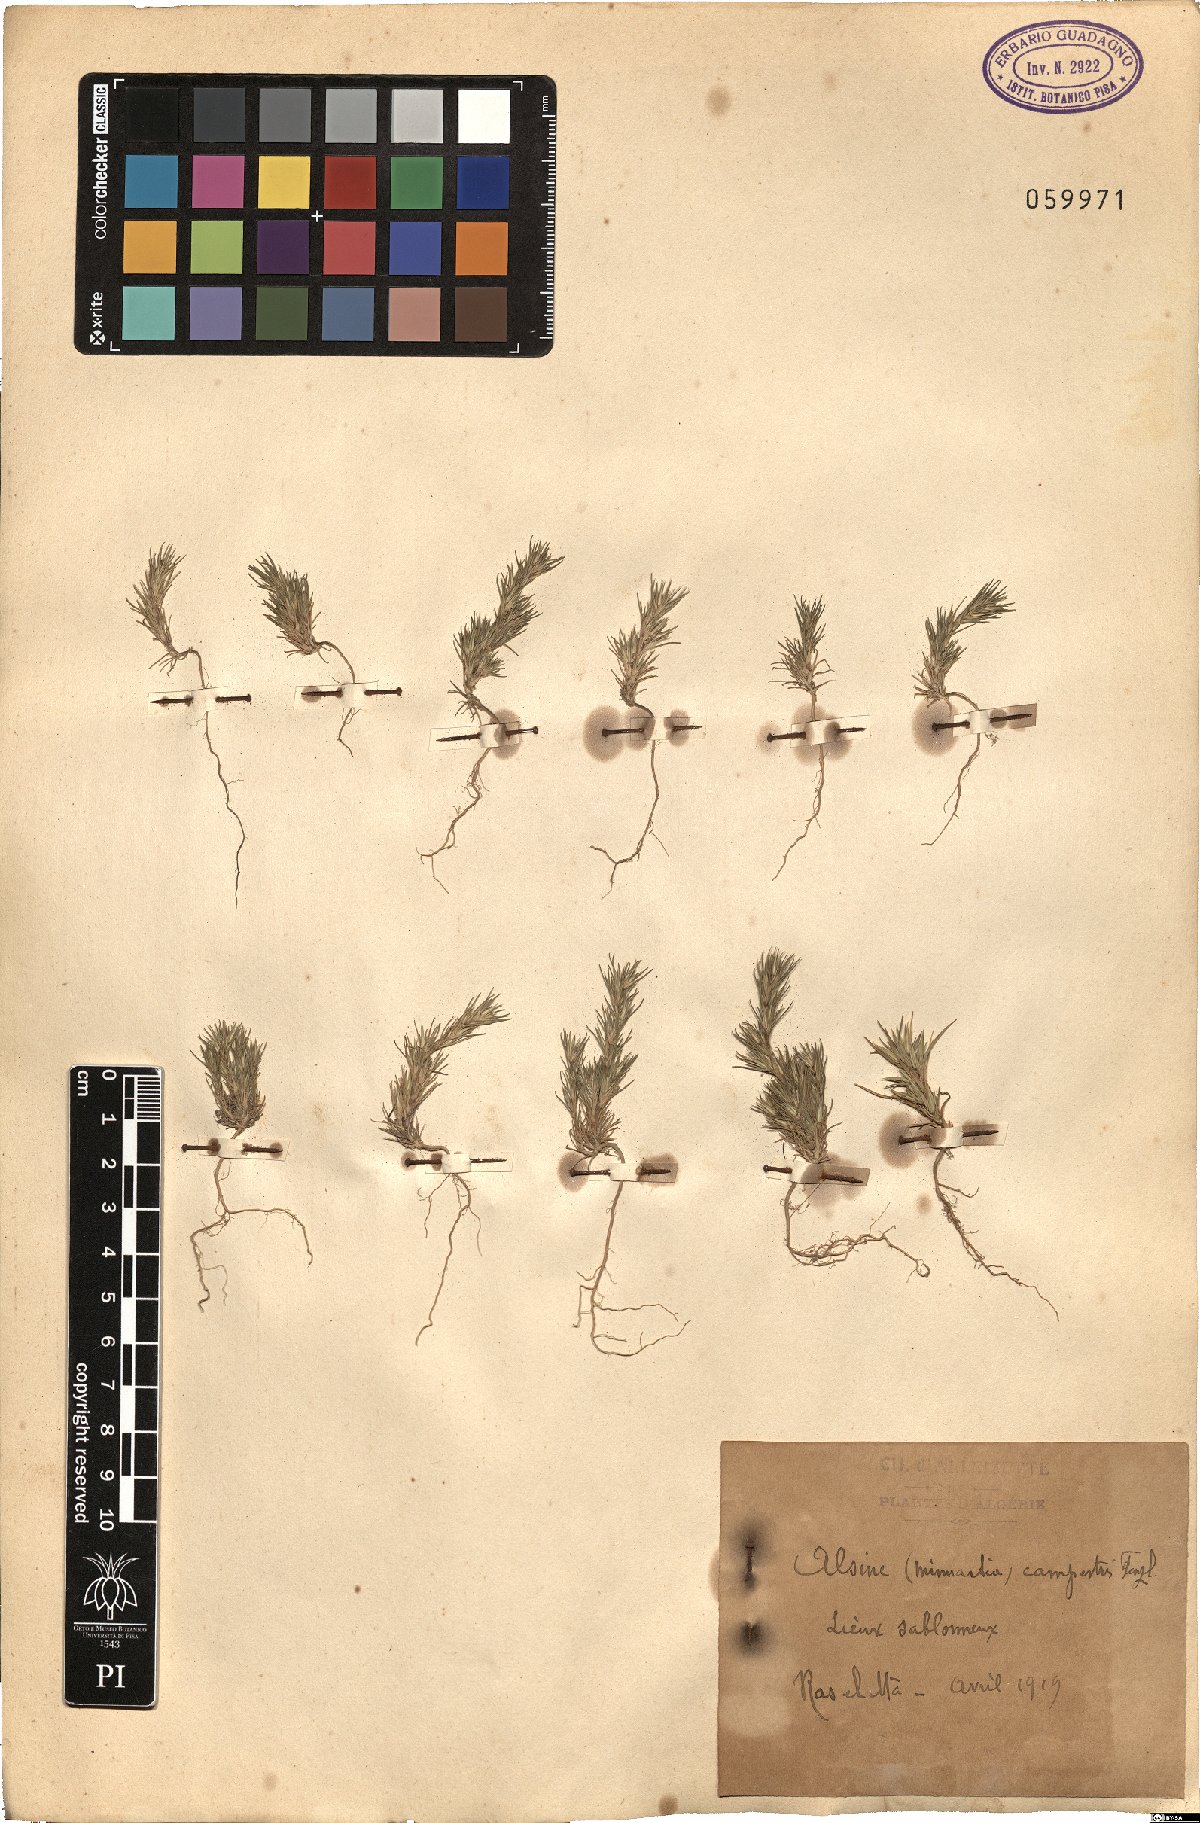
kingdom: Plantae
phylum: Tracheophyta
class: Magnoliopsida
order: Caryophyllales
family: Caryophyllaceae
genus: Minuartia
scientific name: Minuartia campestris
